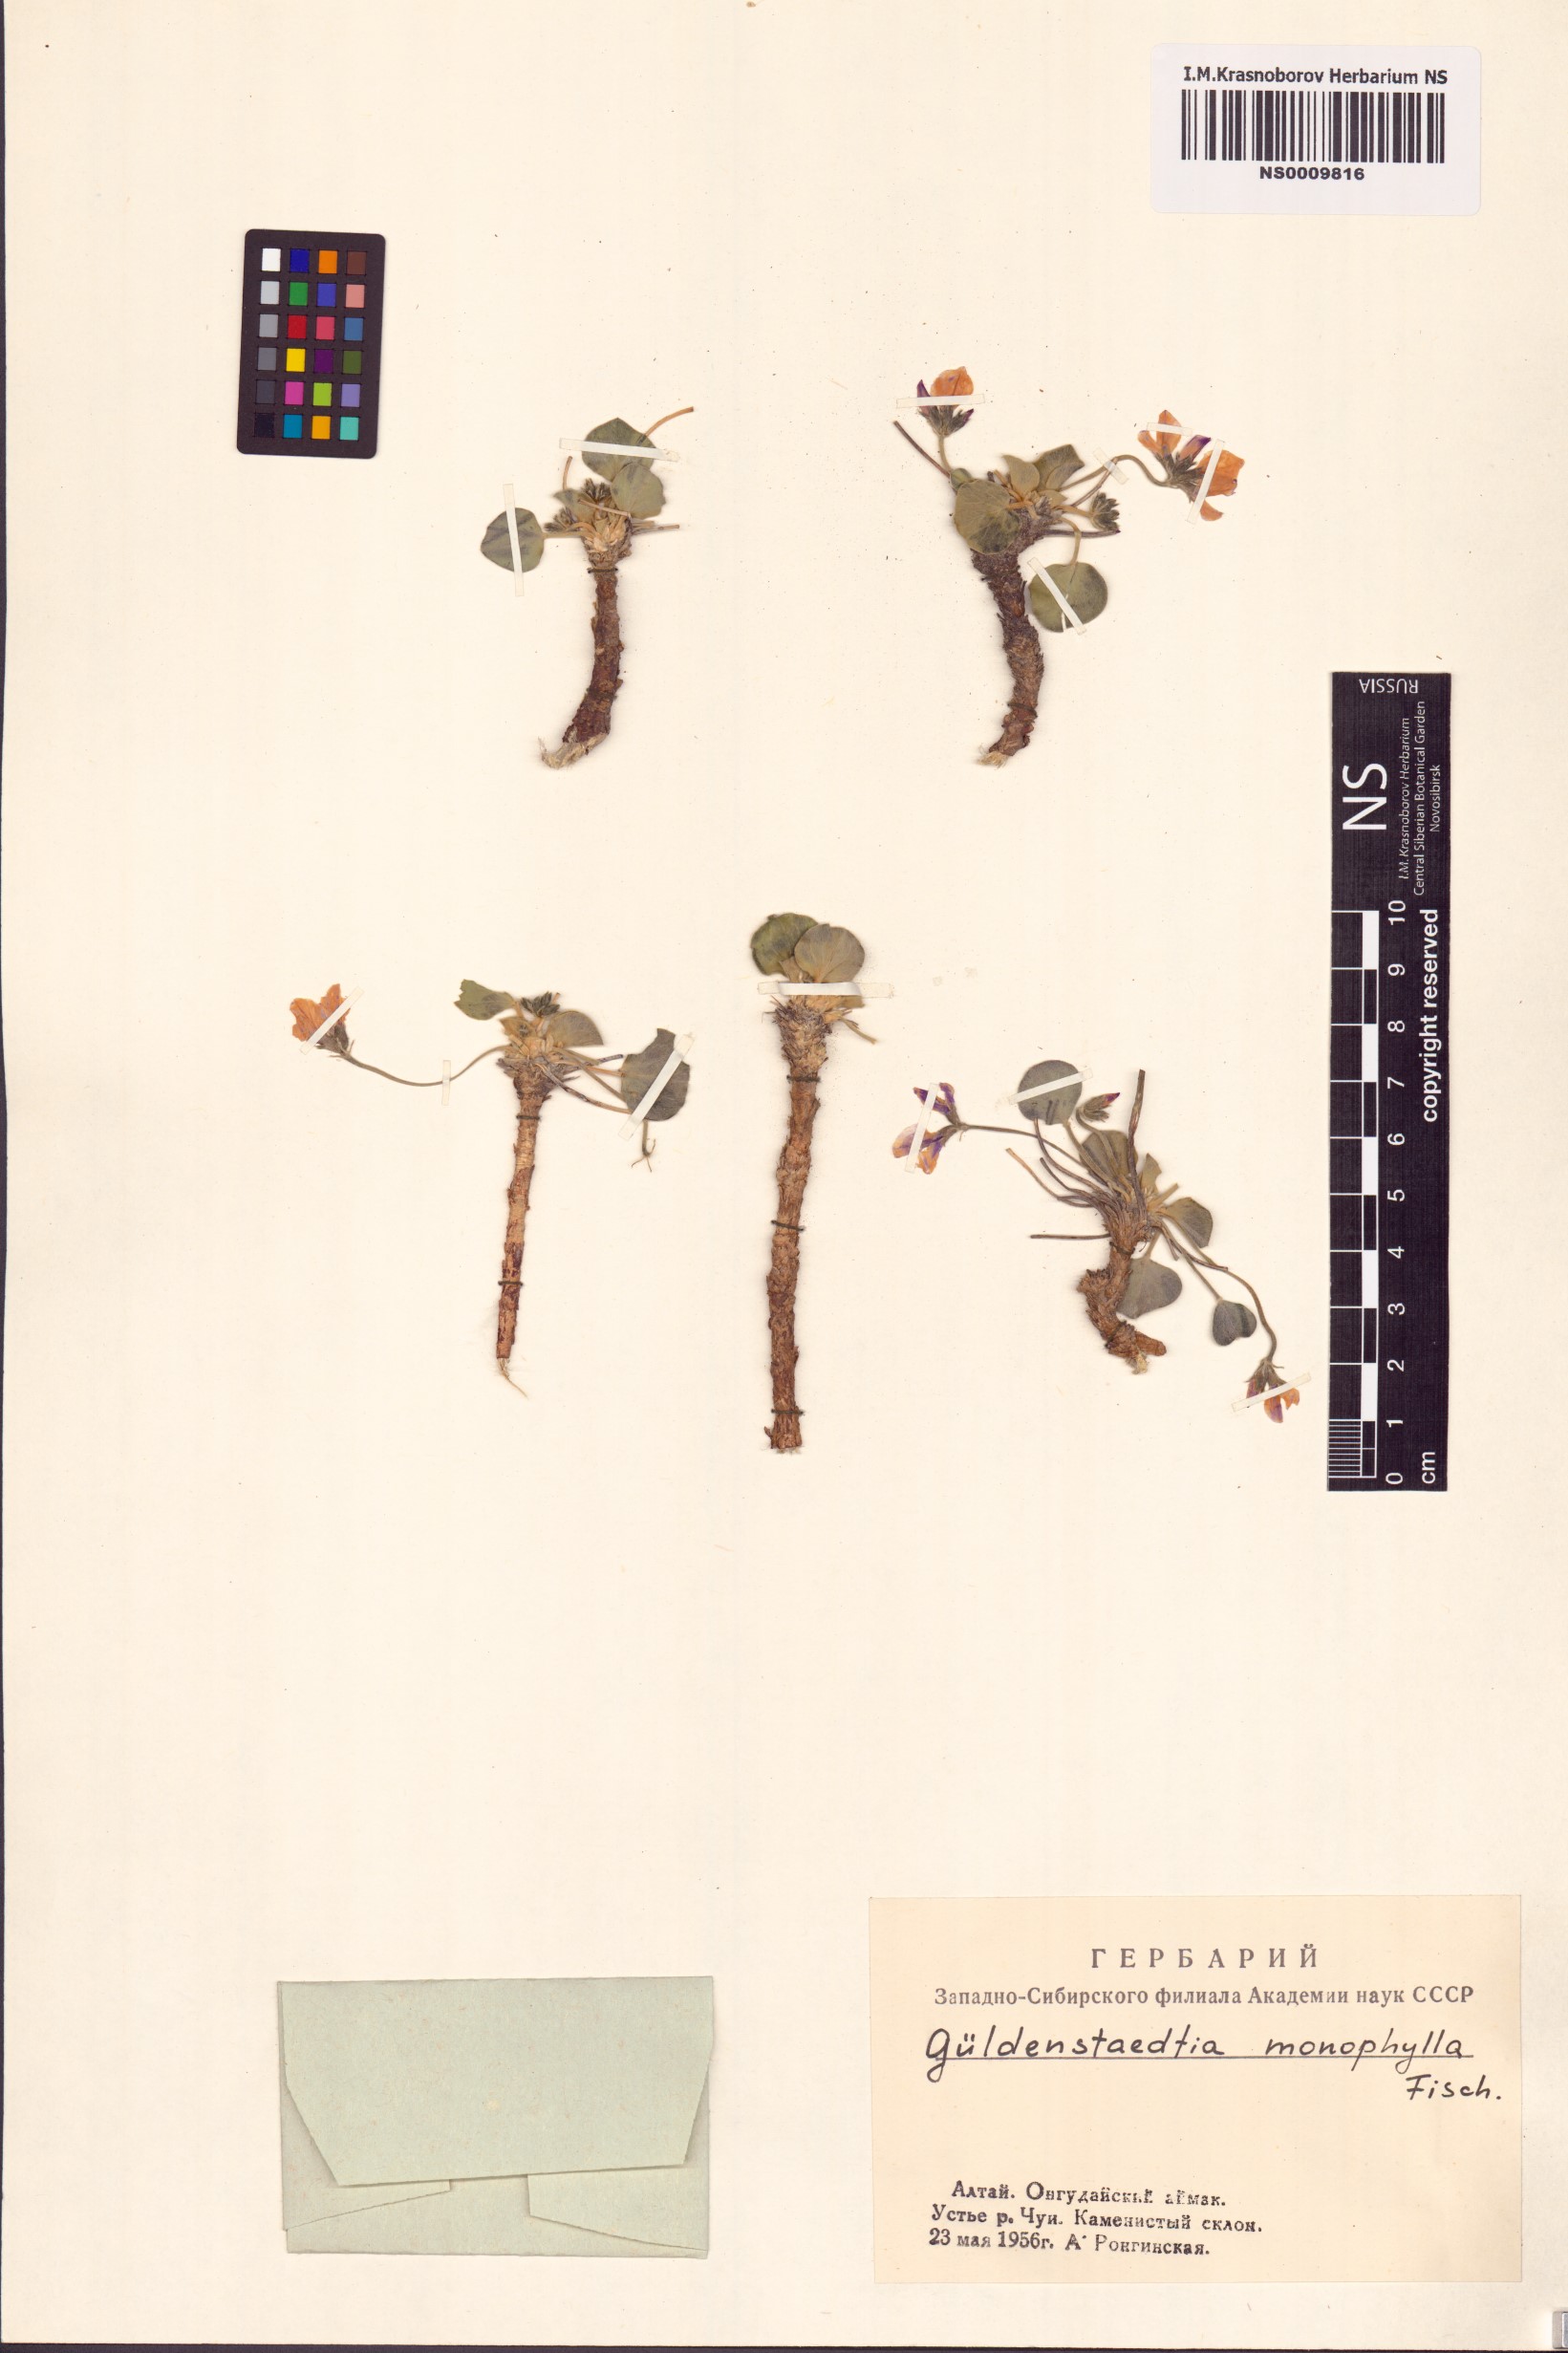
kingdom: Plantae
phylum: Tracheophyta
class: Magnoliopsida
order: Fabales
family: Fabaceae
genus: Gueldenstaedtia
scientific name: Gueldenstaedtia monophylla
